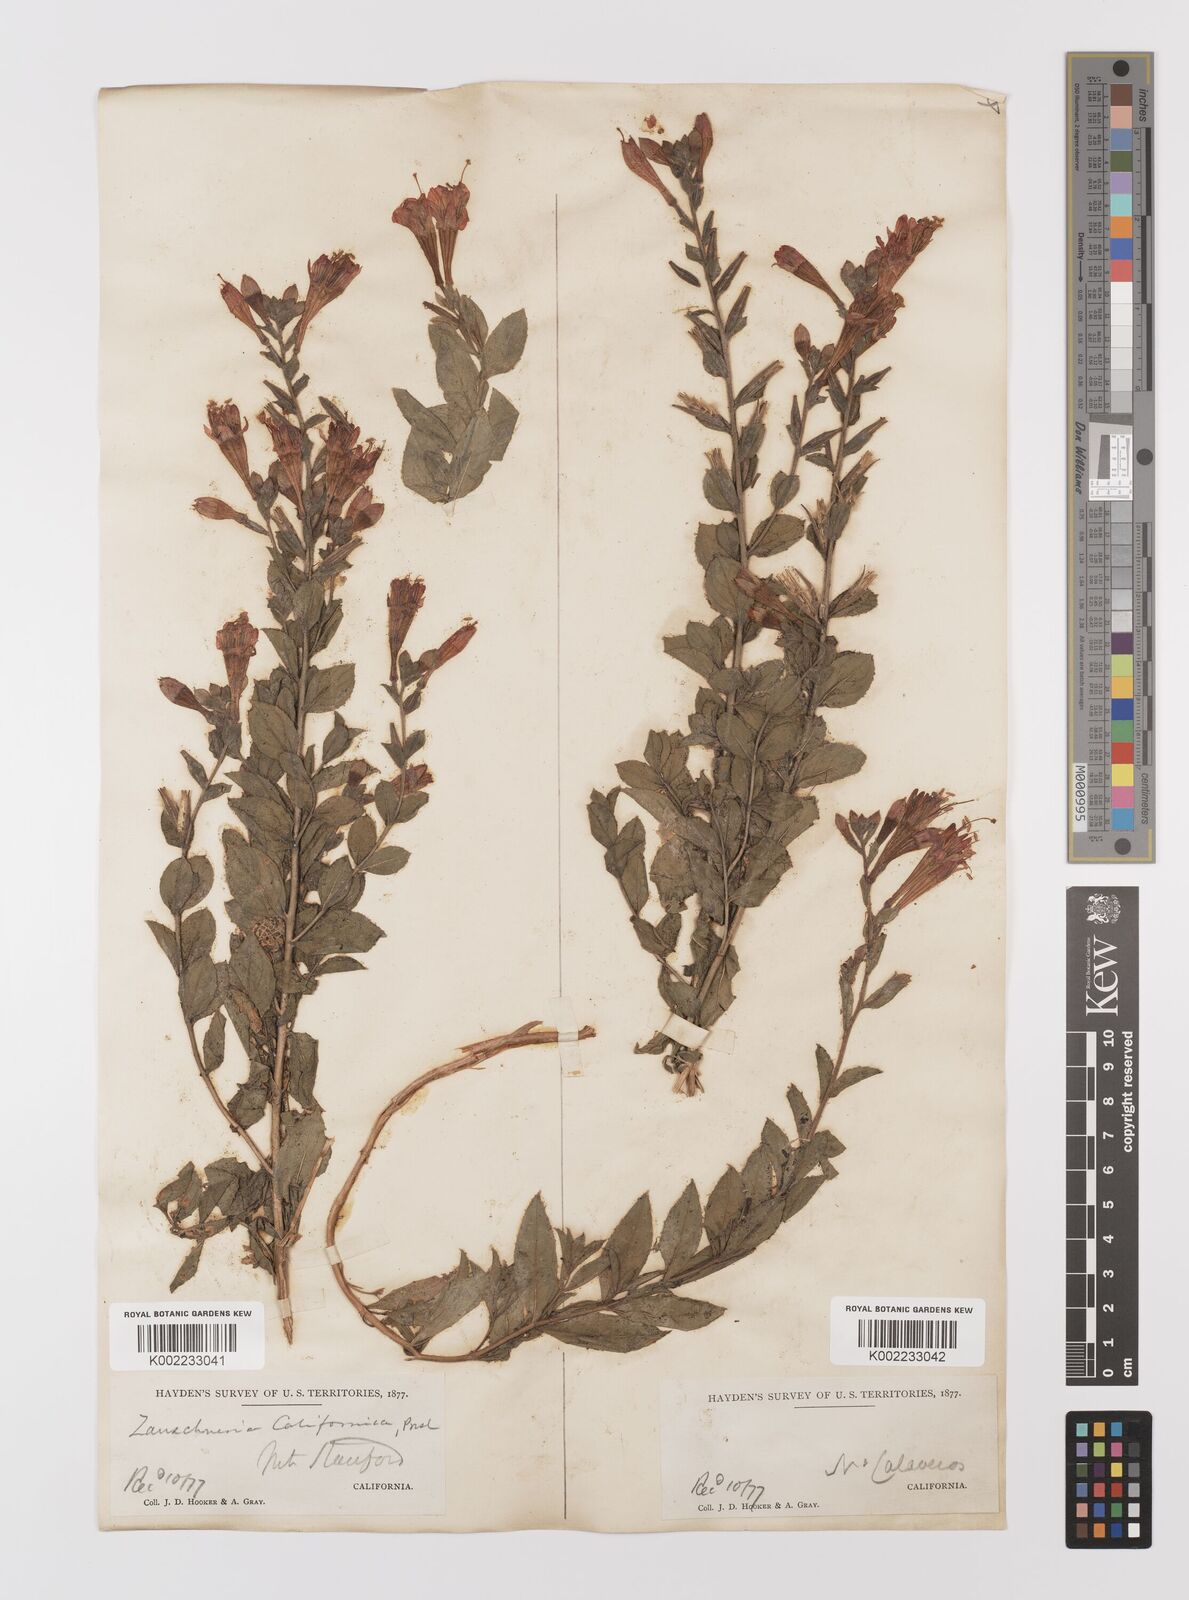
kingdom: Plantae
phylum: Tracheophyta
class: Magnoliopsida
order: Myrtales
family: Onagraceae
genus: Epilobium
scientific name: Epilobium
